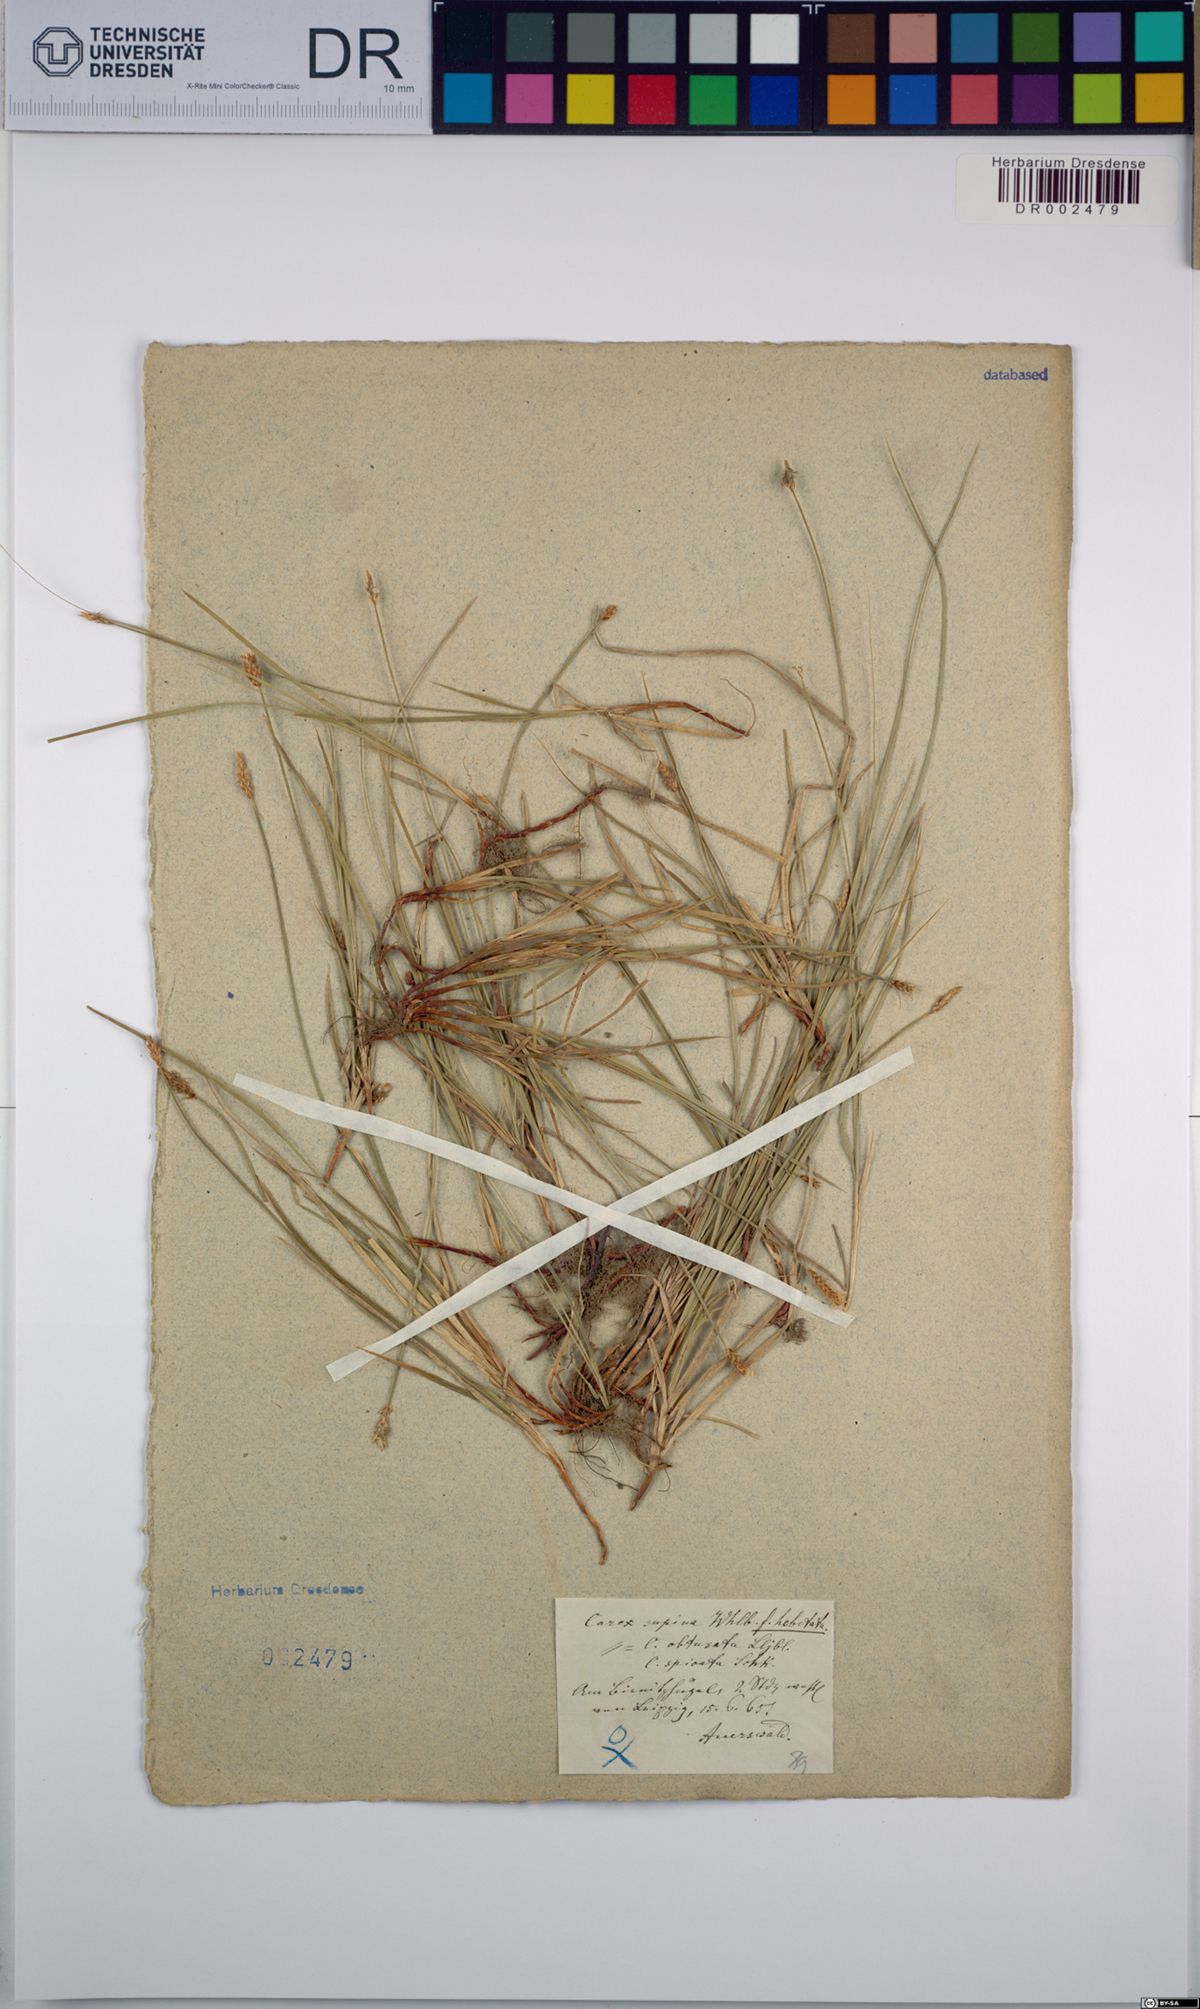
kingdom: Plantae
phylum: Tracheophyta
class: Liliopsida
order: Poales
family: Cyperaceae
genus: Carex
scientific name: Carex obtusata
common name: Blunt sedge
